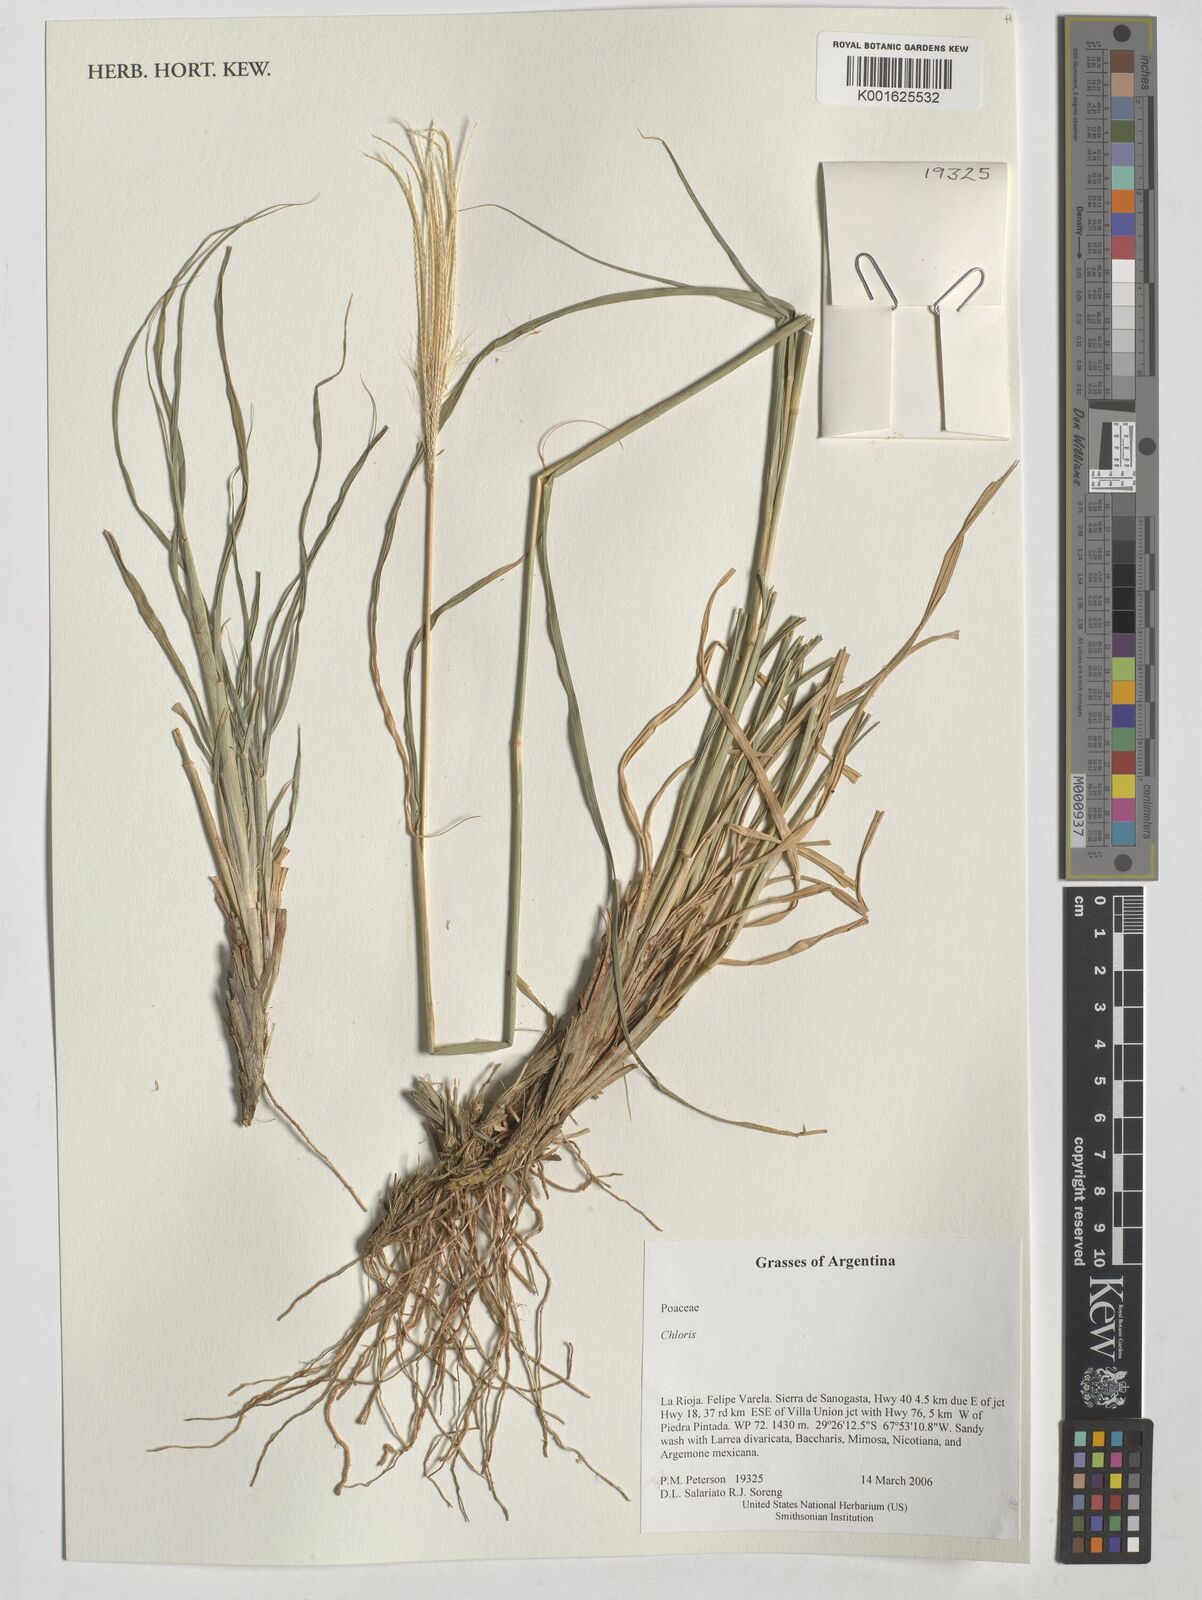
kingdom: Plantae
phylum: Tracheophyta
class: Liliopsida
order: Poales
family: Poaceae
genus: Chloris
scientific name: Chloris
